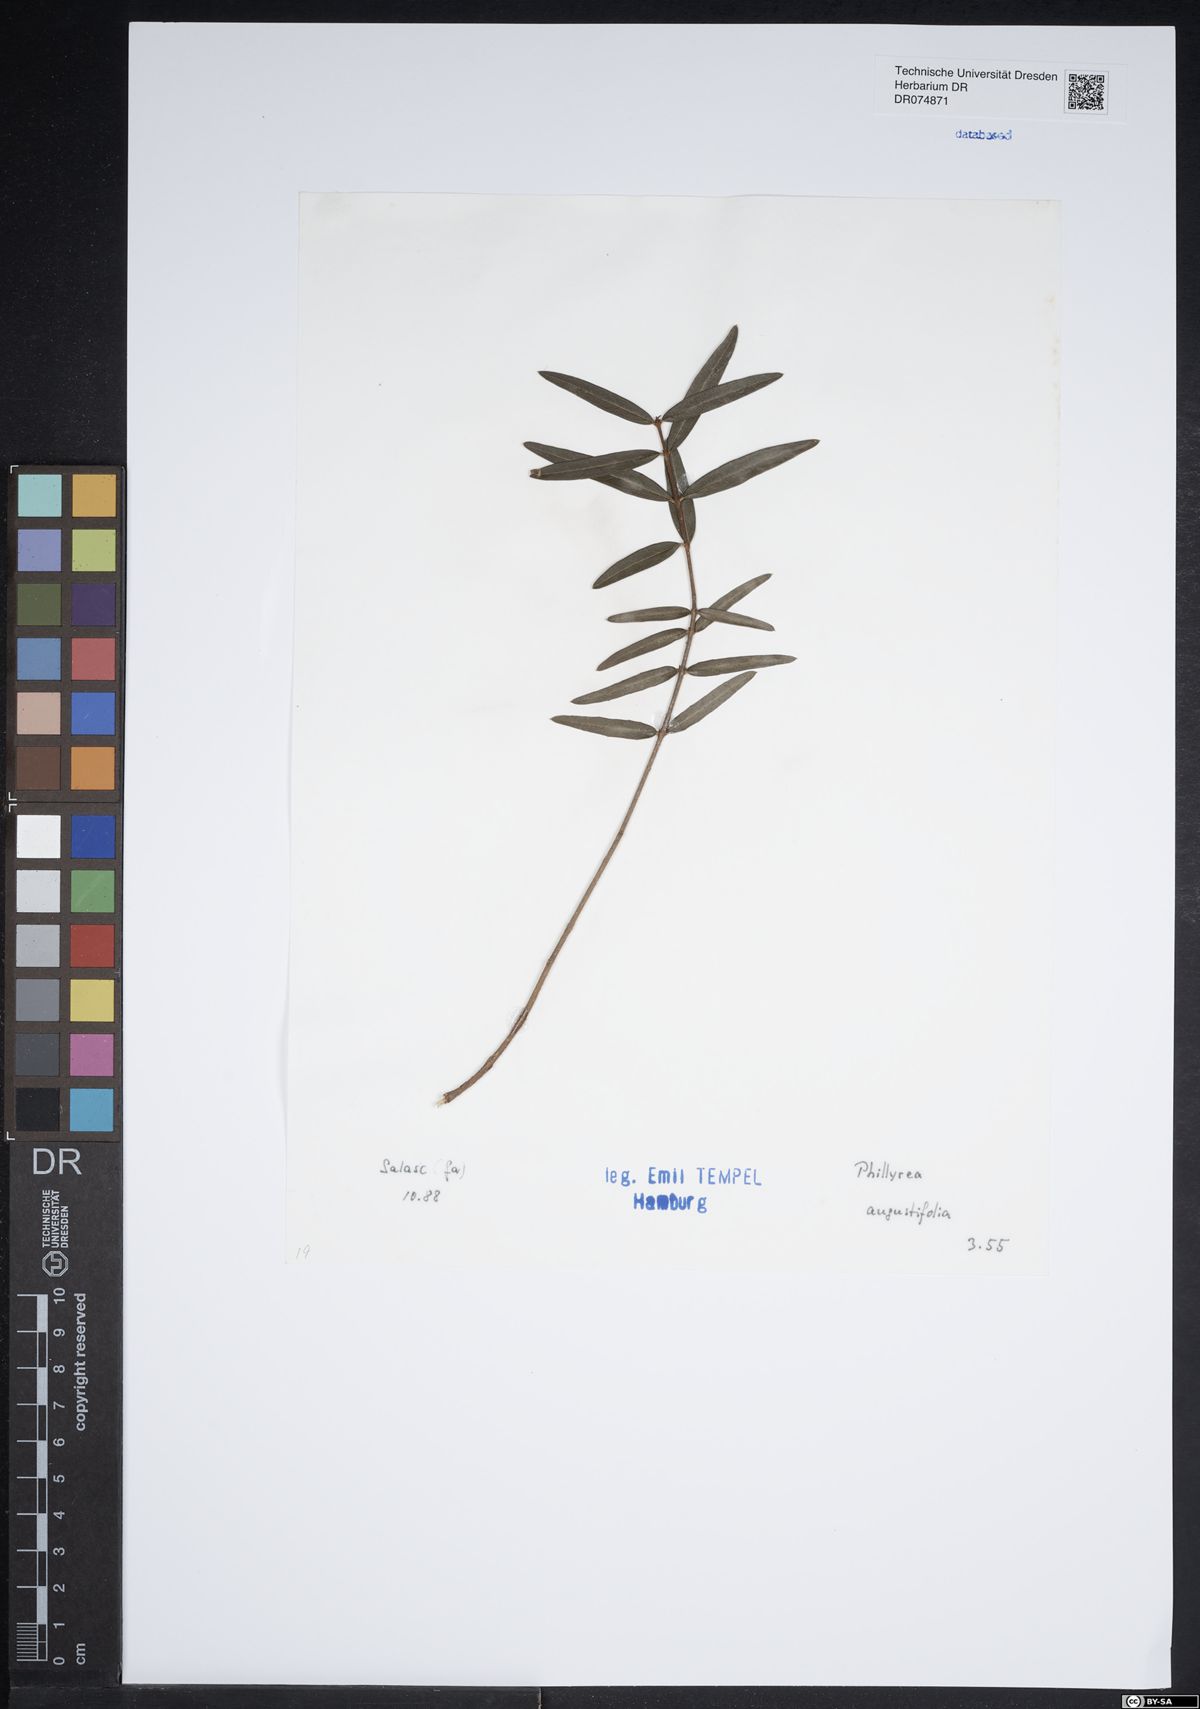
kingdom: Plantae
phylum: Tracheophyta
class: Magnoliopsida
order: Lamiales
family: Oleaceae
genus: Phillyrea
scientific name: Phillyrea angustifolia
